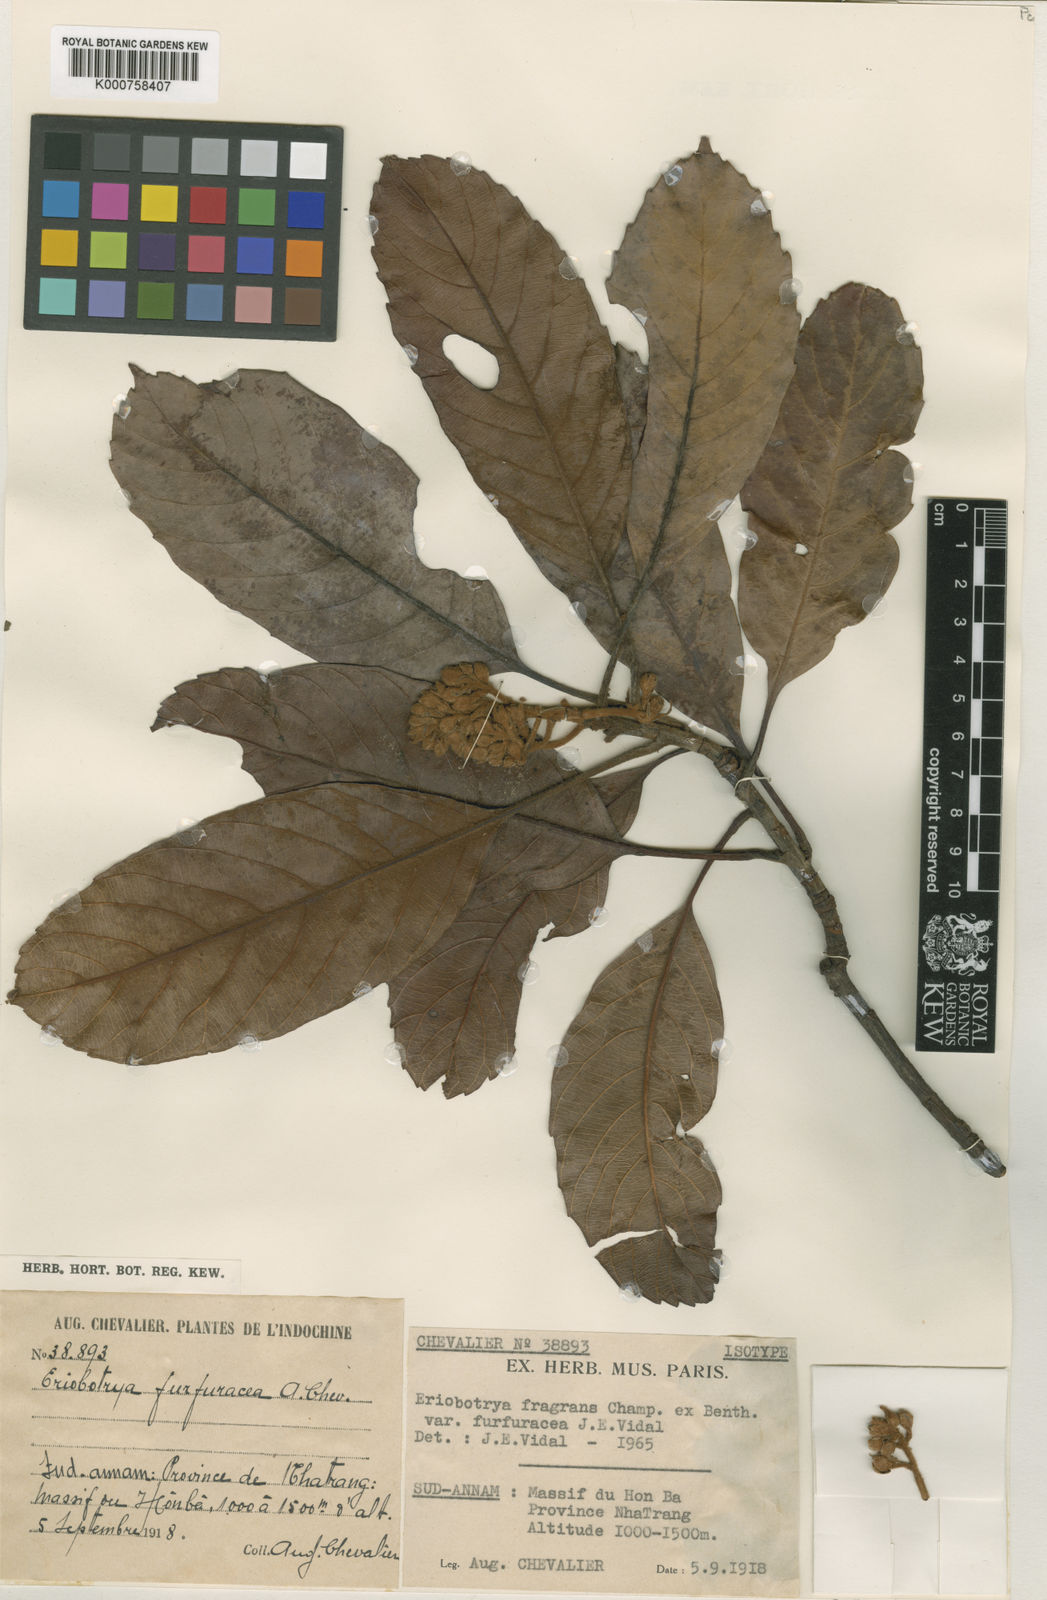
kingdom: Plantae
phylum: Tracheophyta
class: Magnoliopsida
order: Rosales
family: Rosaceae
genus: Rhaphiolepis
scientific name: Rhaphiolepis williamtelliana
